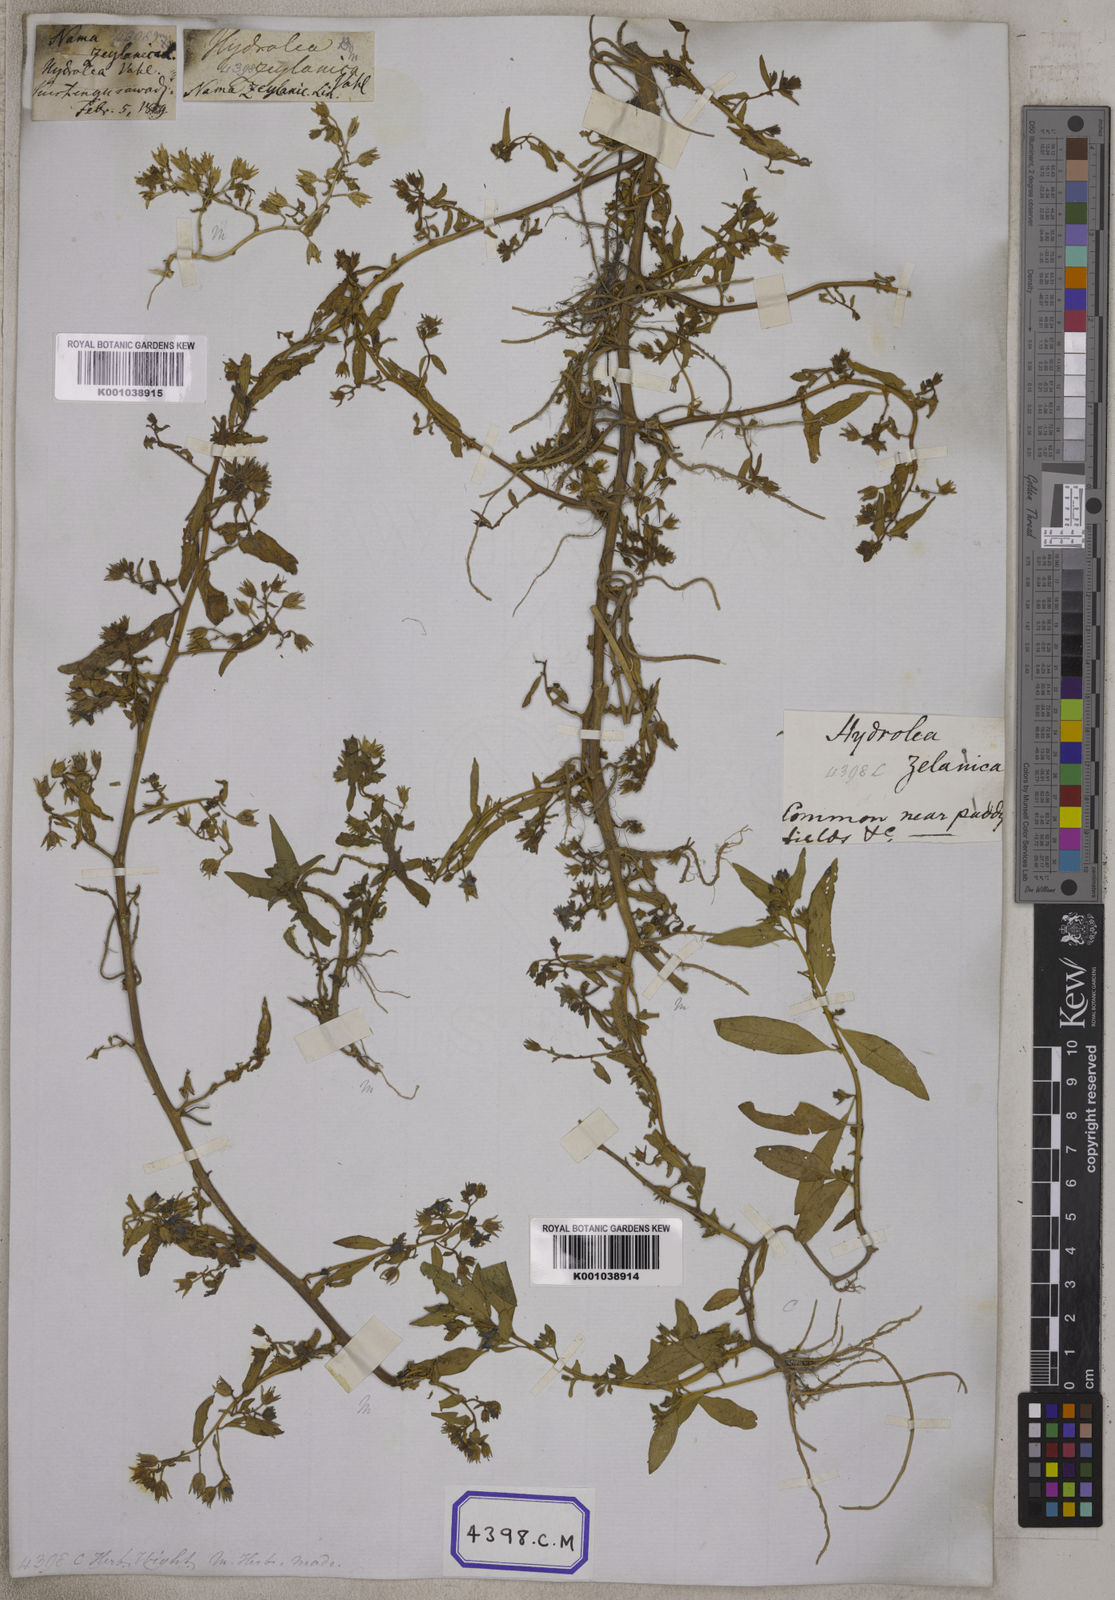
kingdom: Plantae
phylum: Tracheophyta
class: Magnoliopsida
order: Solanales
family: Hydroleaceae
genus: Hydrolea
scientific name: Hydrolea zeylanica
